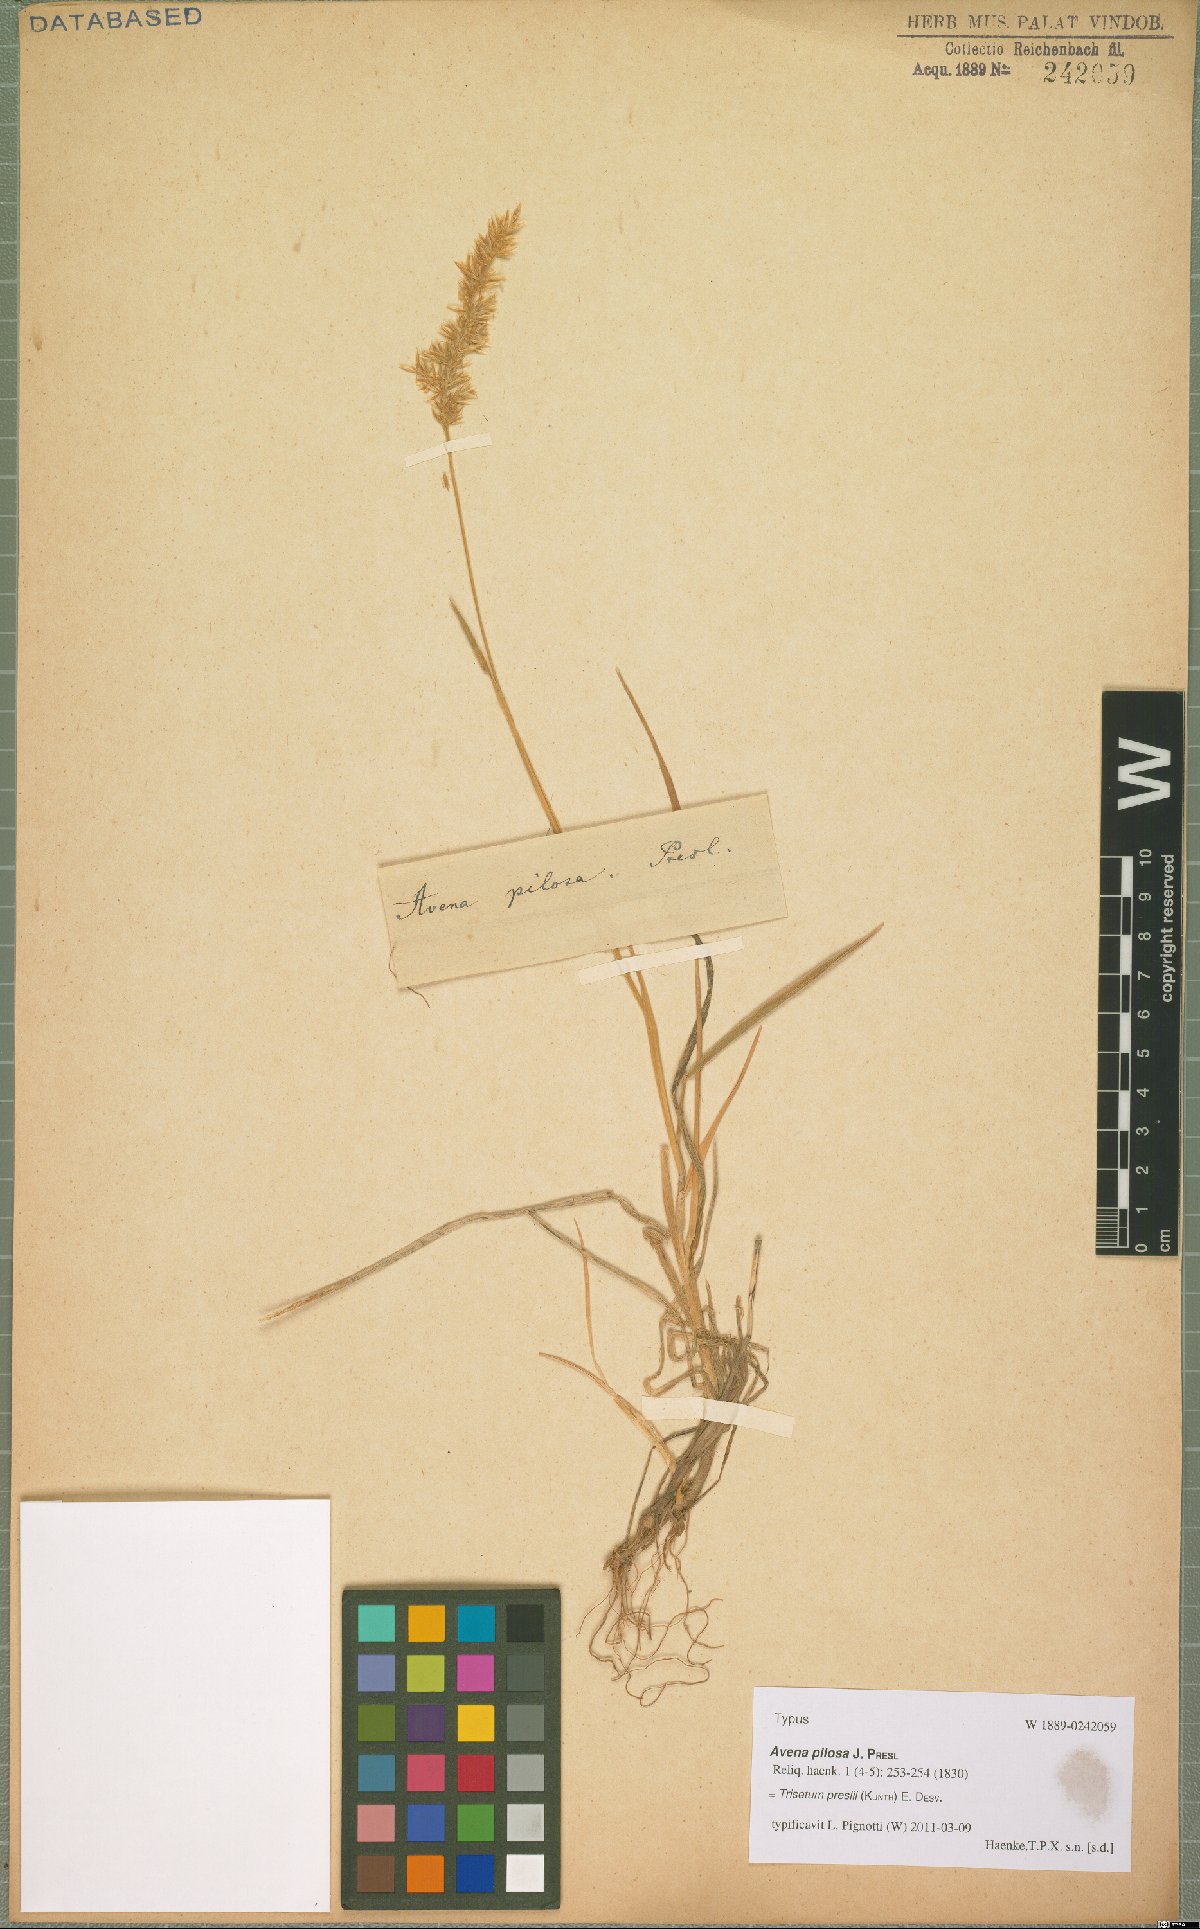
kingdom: Plantae
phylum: Tracheophyta
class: Liliopsida
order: Poales
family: Poaceae
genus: Koeleria
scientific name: Koeleria preslii
